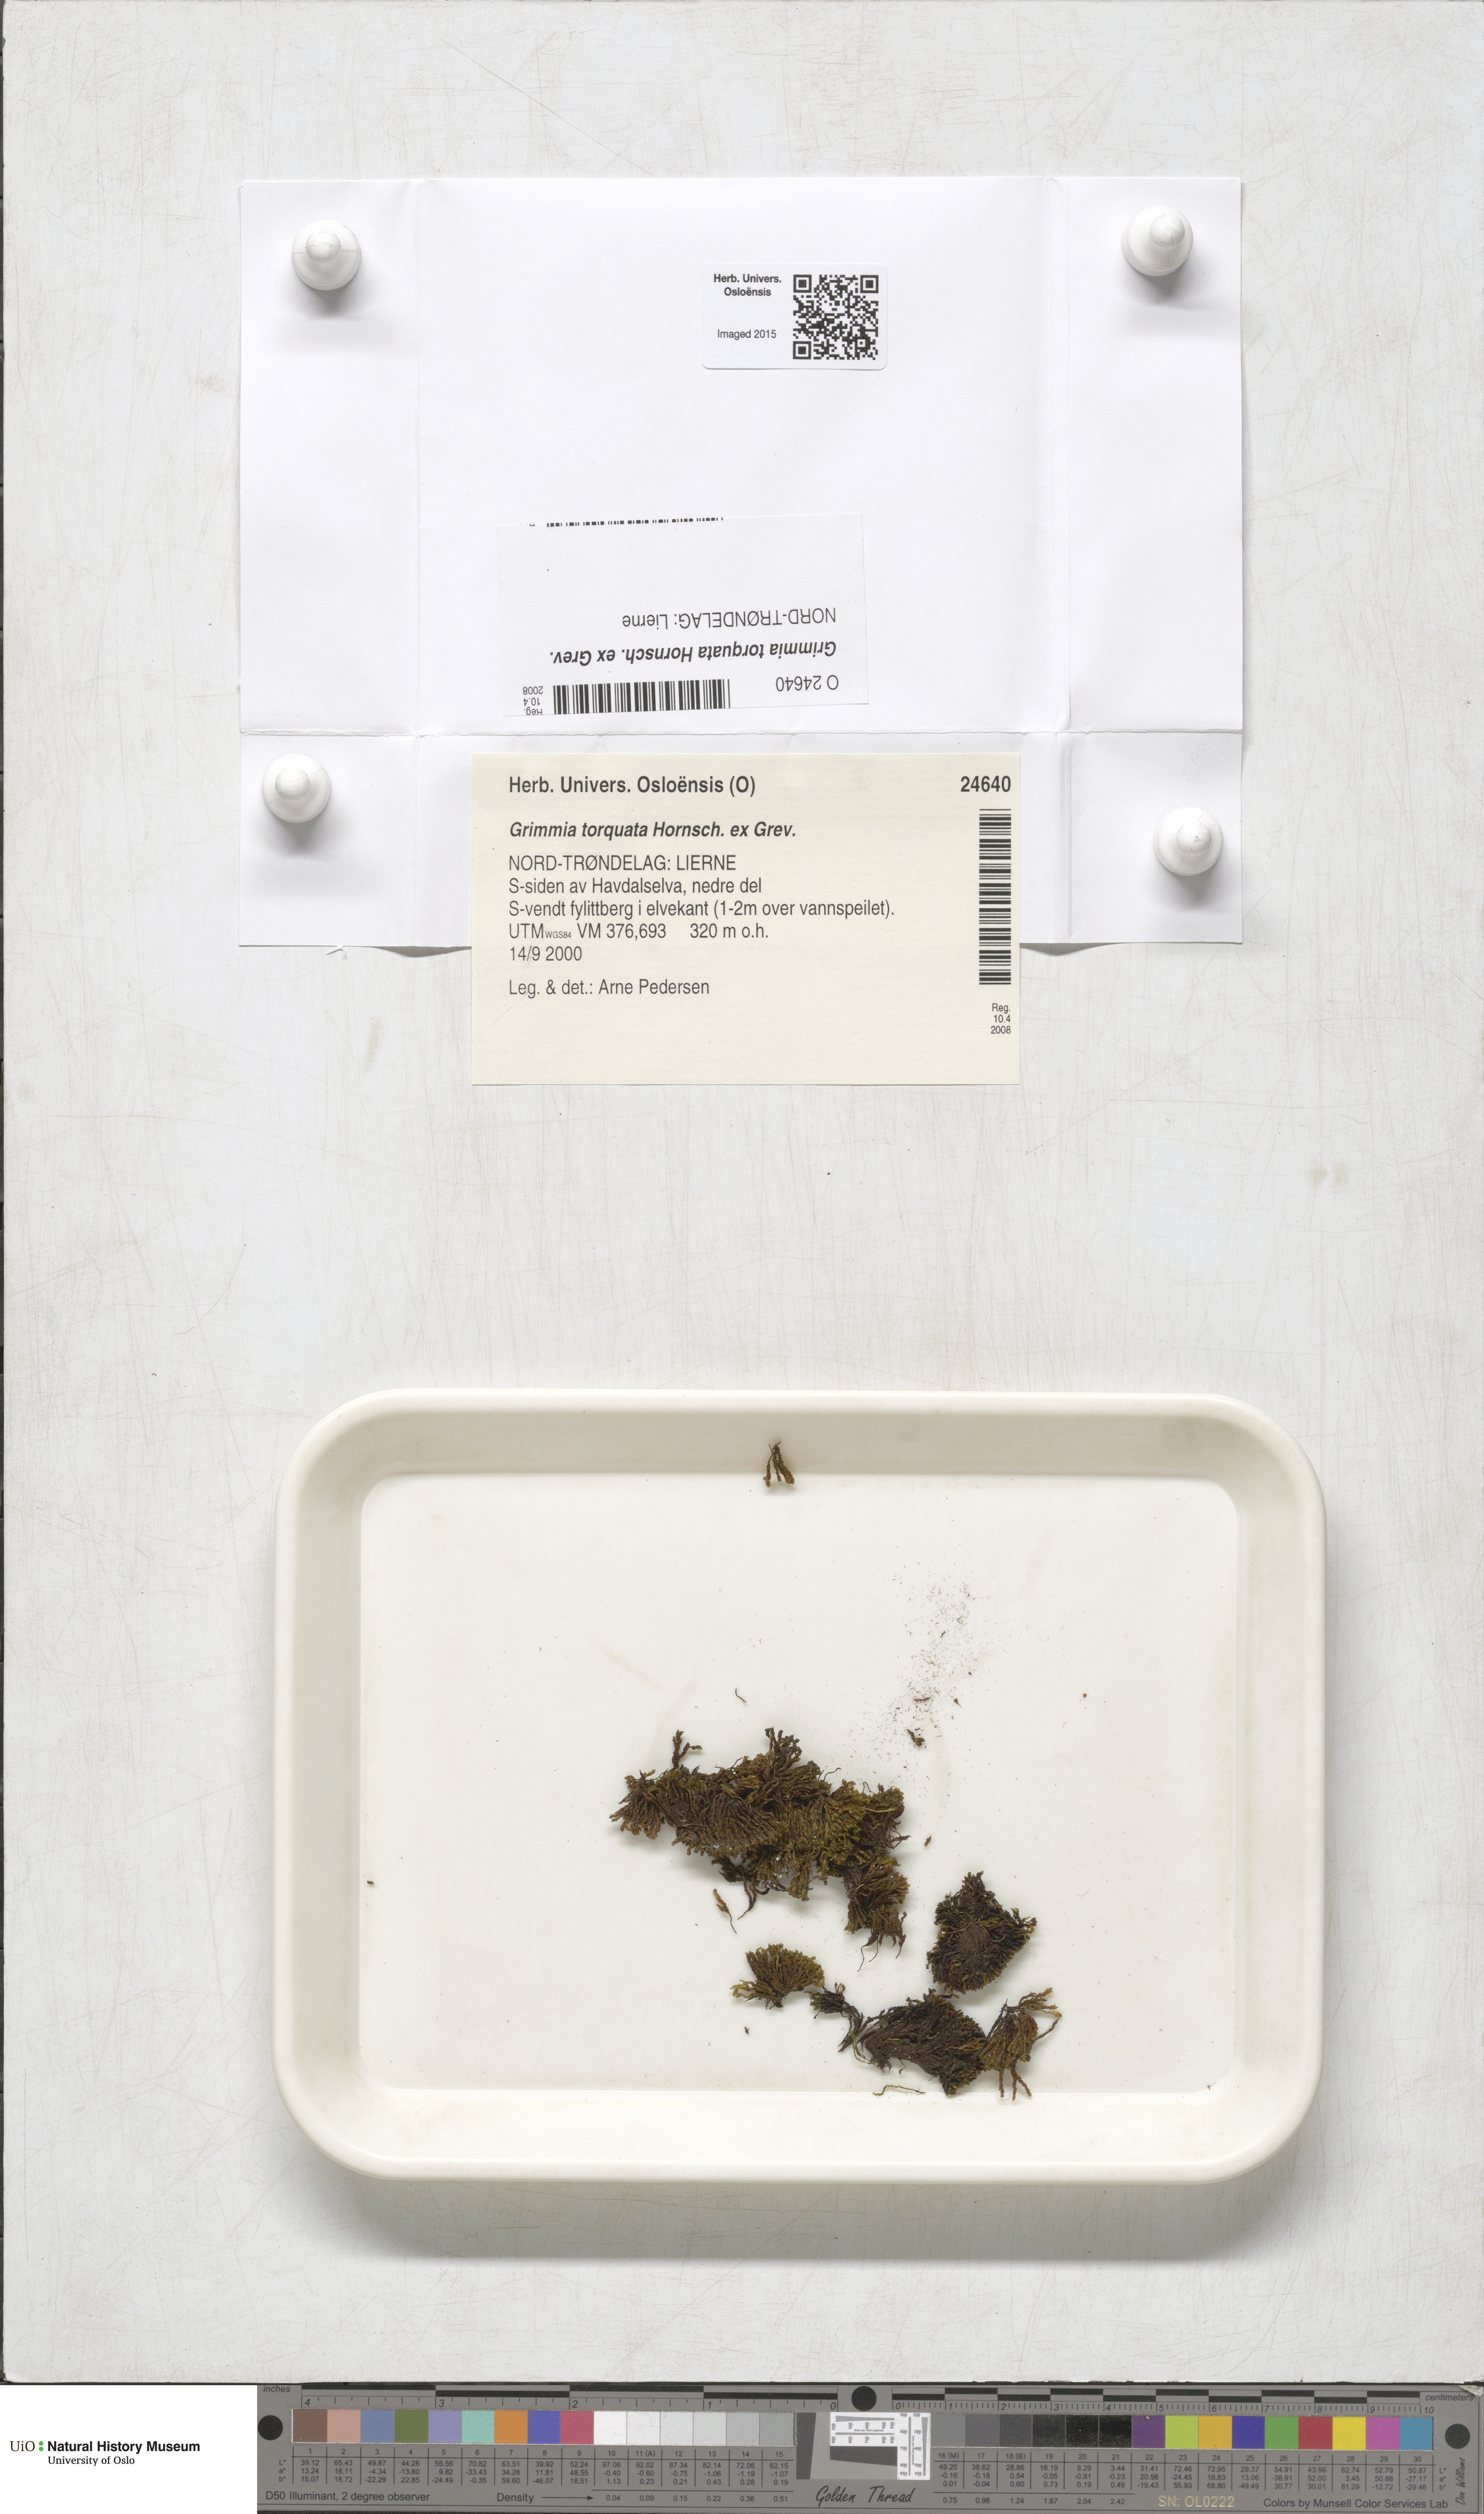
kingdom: Plantae
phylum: Bryophyta
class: Bryopsida
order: Grimmiales
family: Grimmiaceae
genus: Grimmia
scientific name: Grimmia torquata
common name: Twisted grimmia
